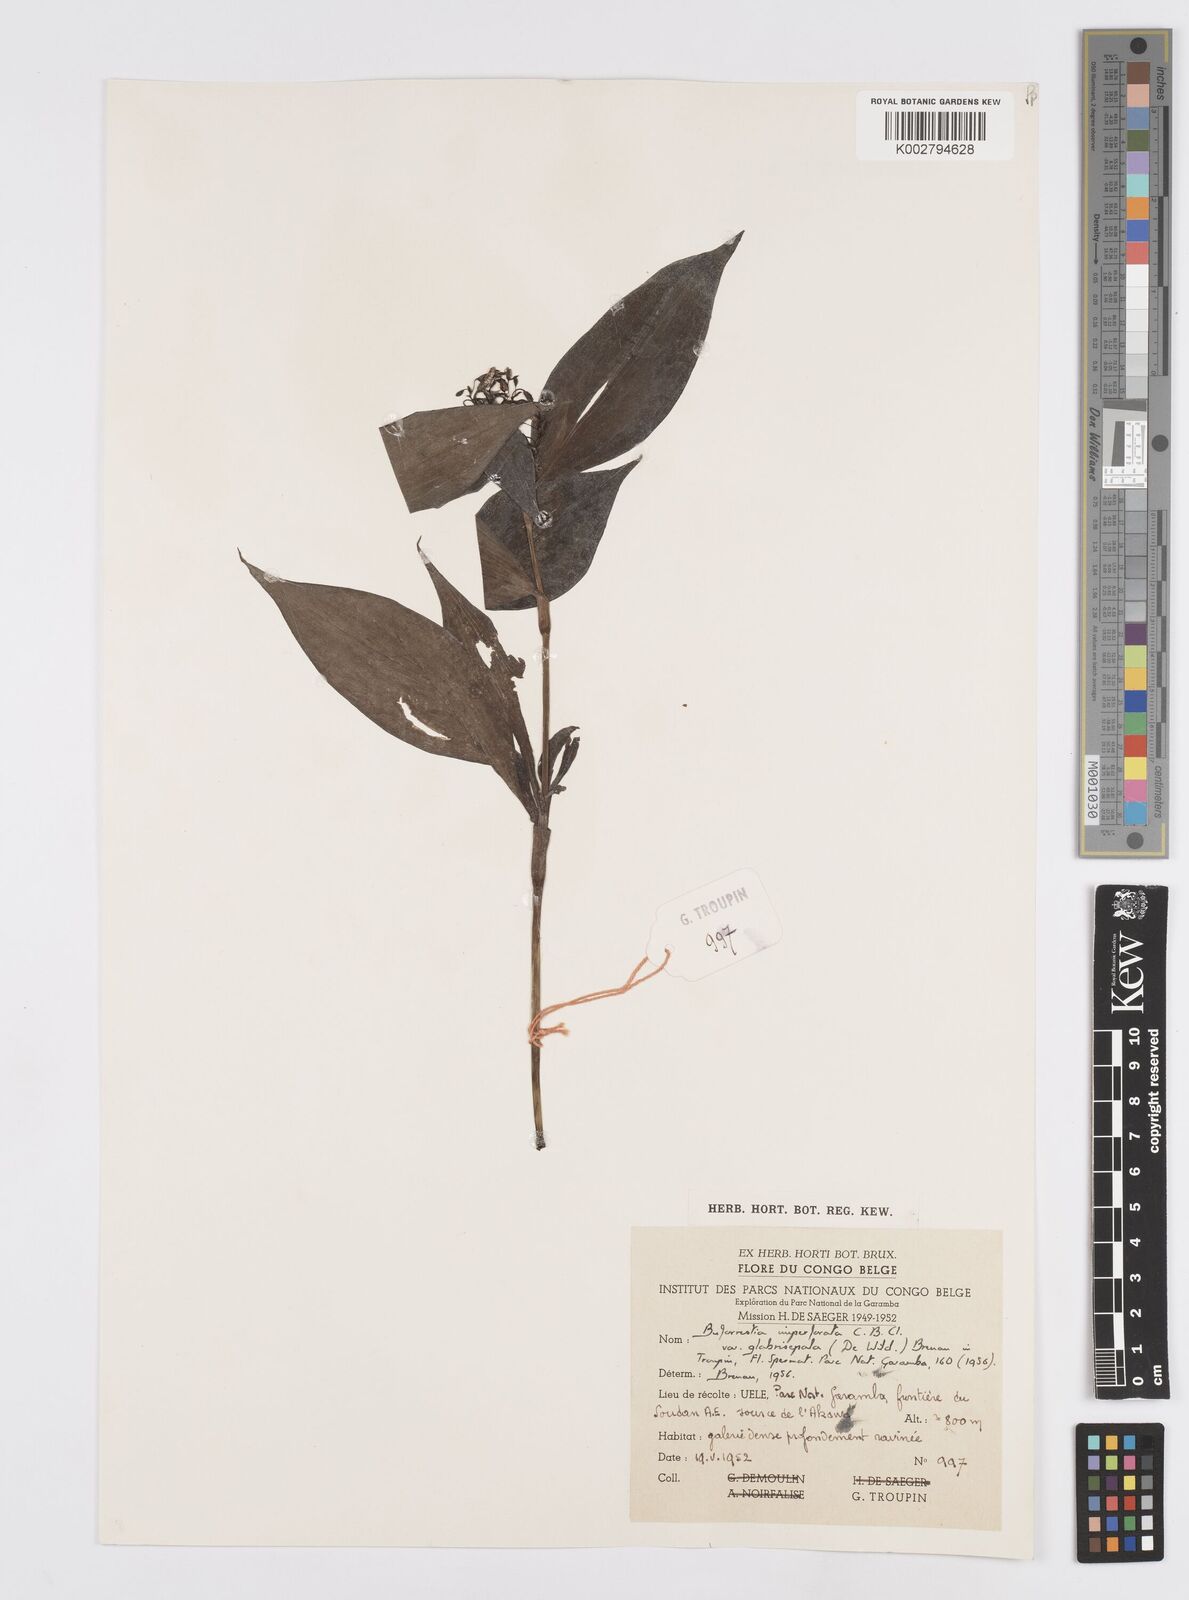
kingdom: Plantae
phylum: Tracheophyta
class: Liliopsida
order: Commelinales
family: Commelinaceae
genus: Stanfieldiella
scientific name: Stanfieldiella imperforata
